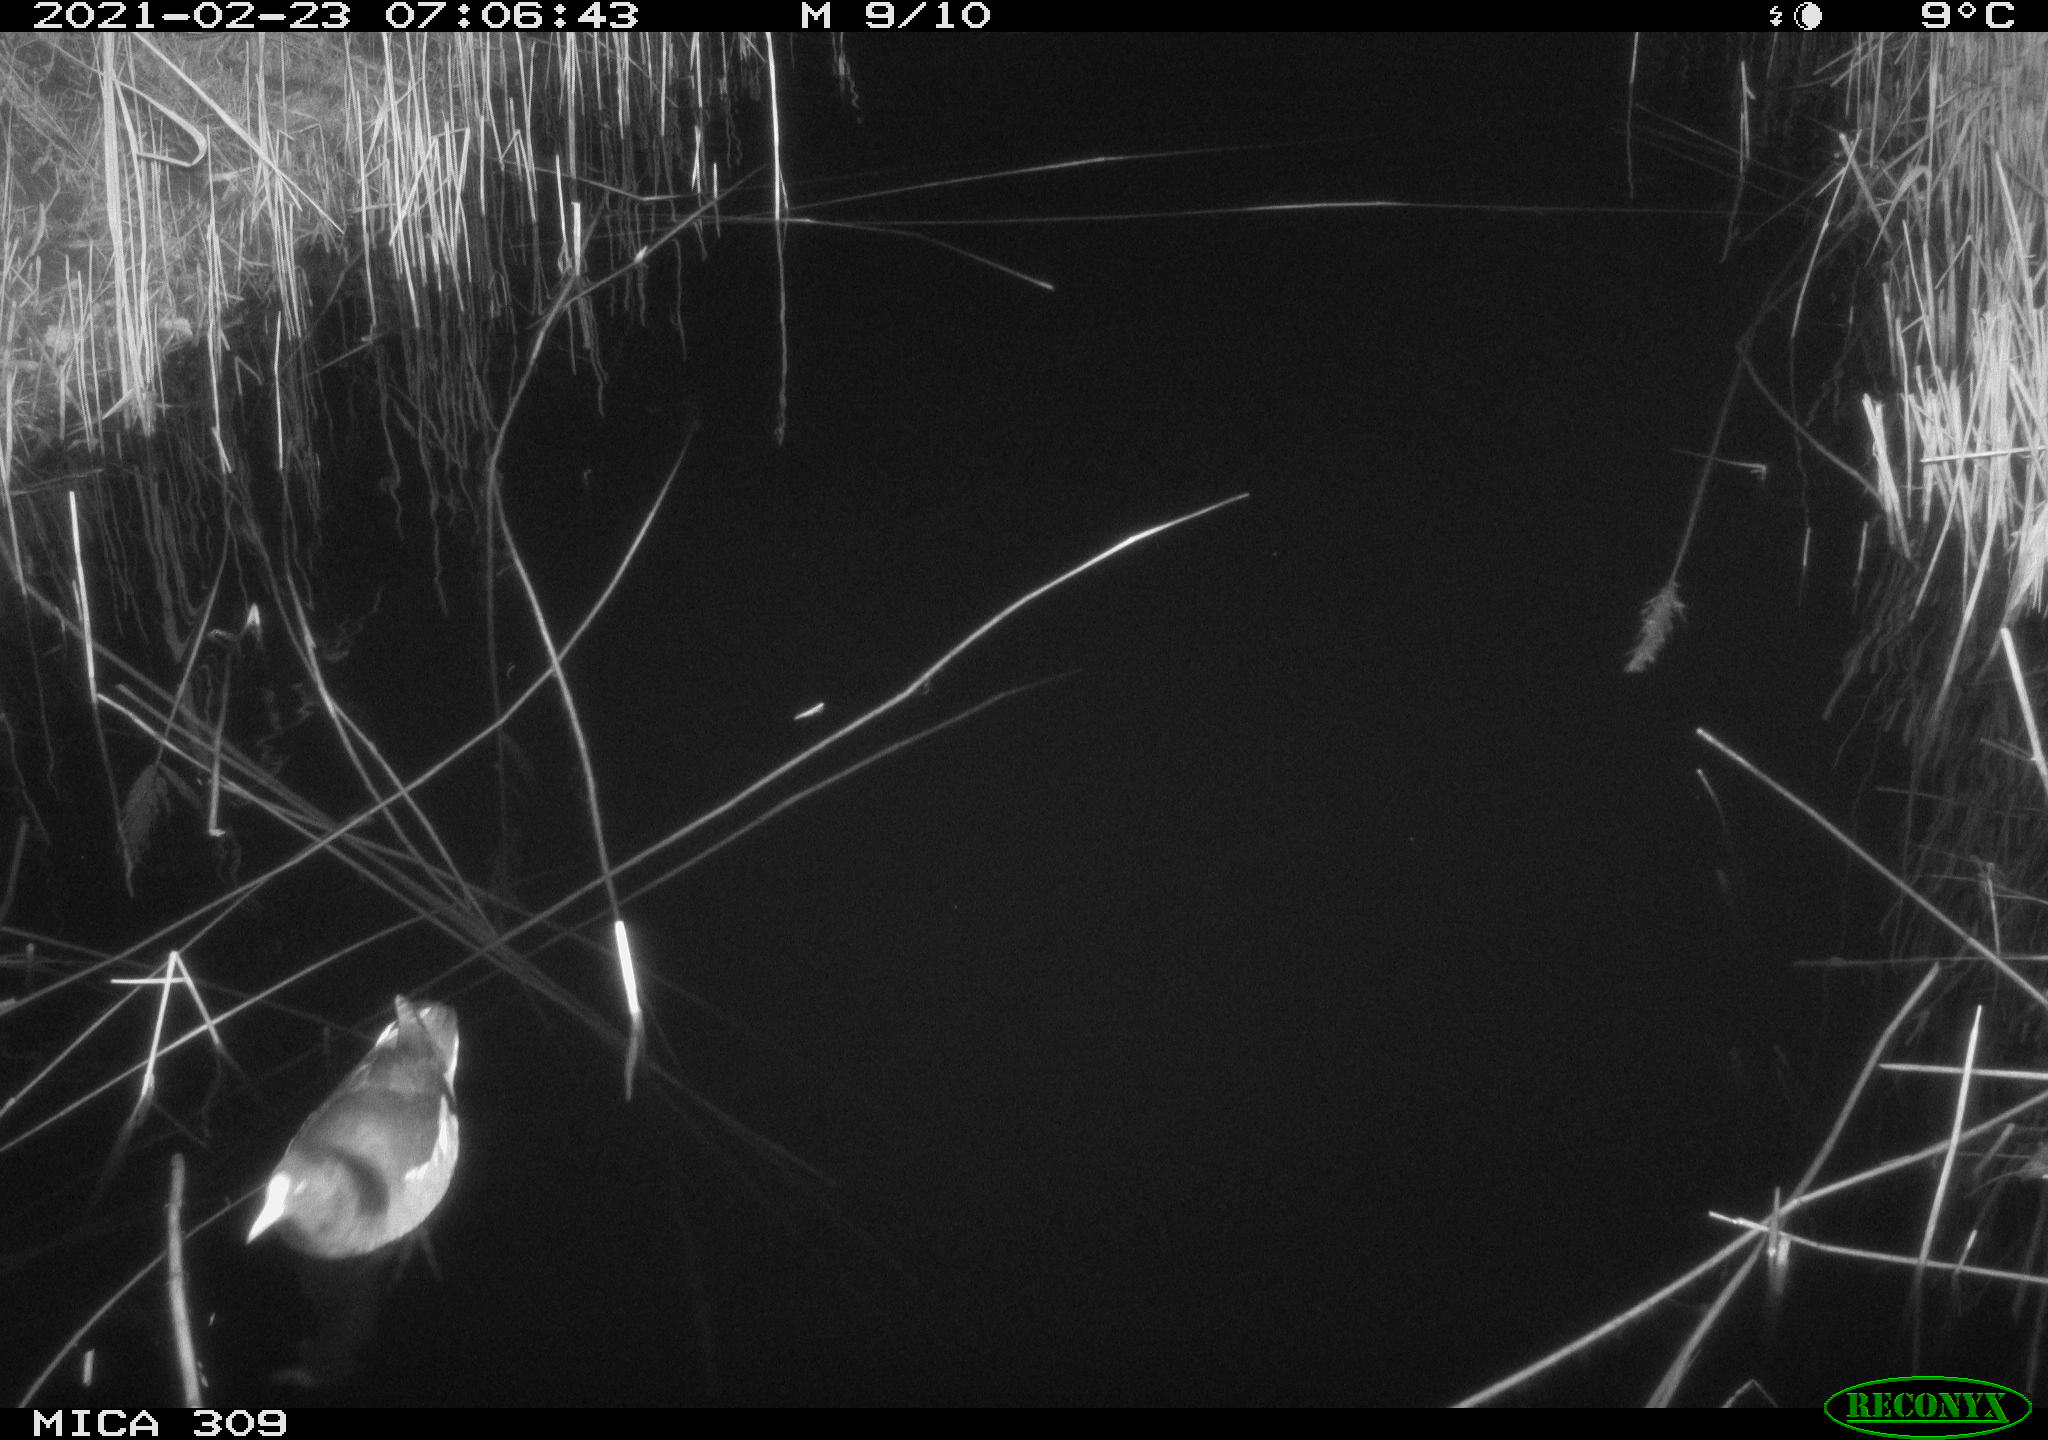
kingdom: Animalia
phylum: Chordata
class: Aves
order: Gruiformes
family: Rallidae
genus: Gallinula
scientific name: Gallinula chloropus
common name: Common moorhen
